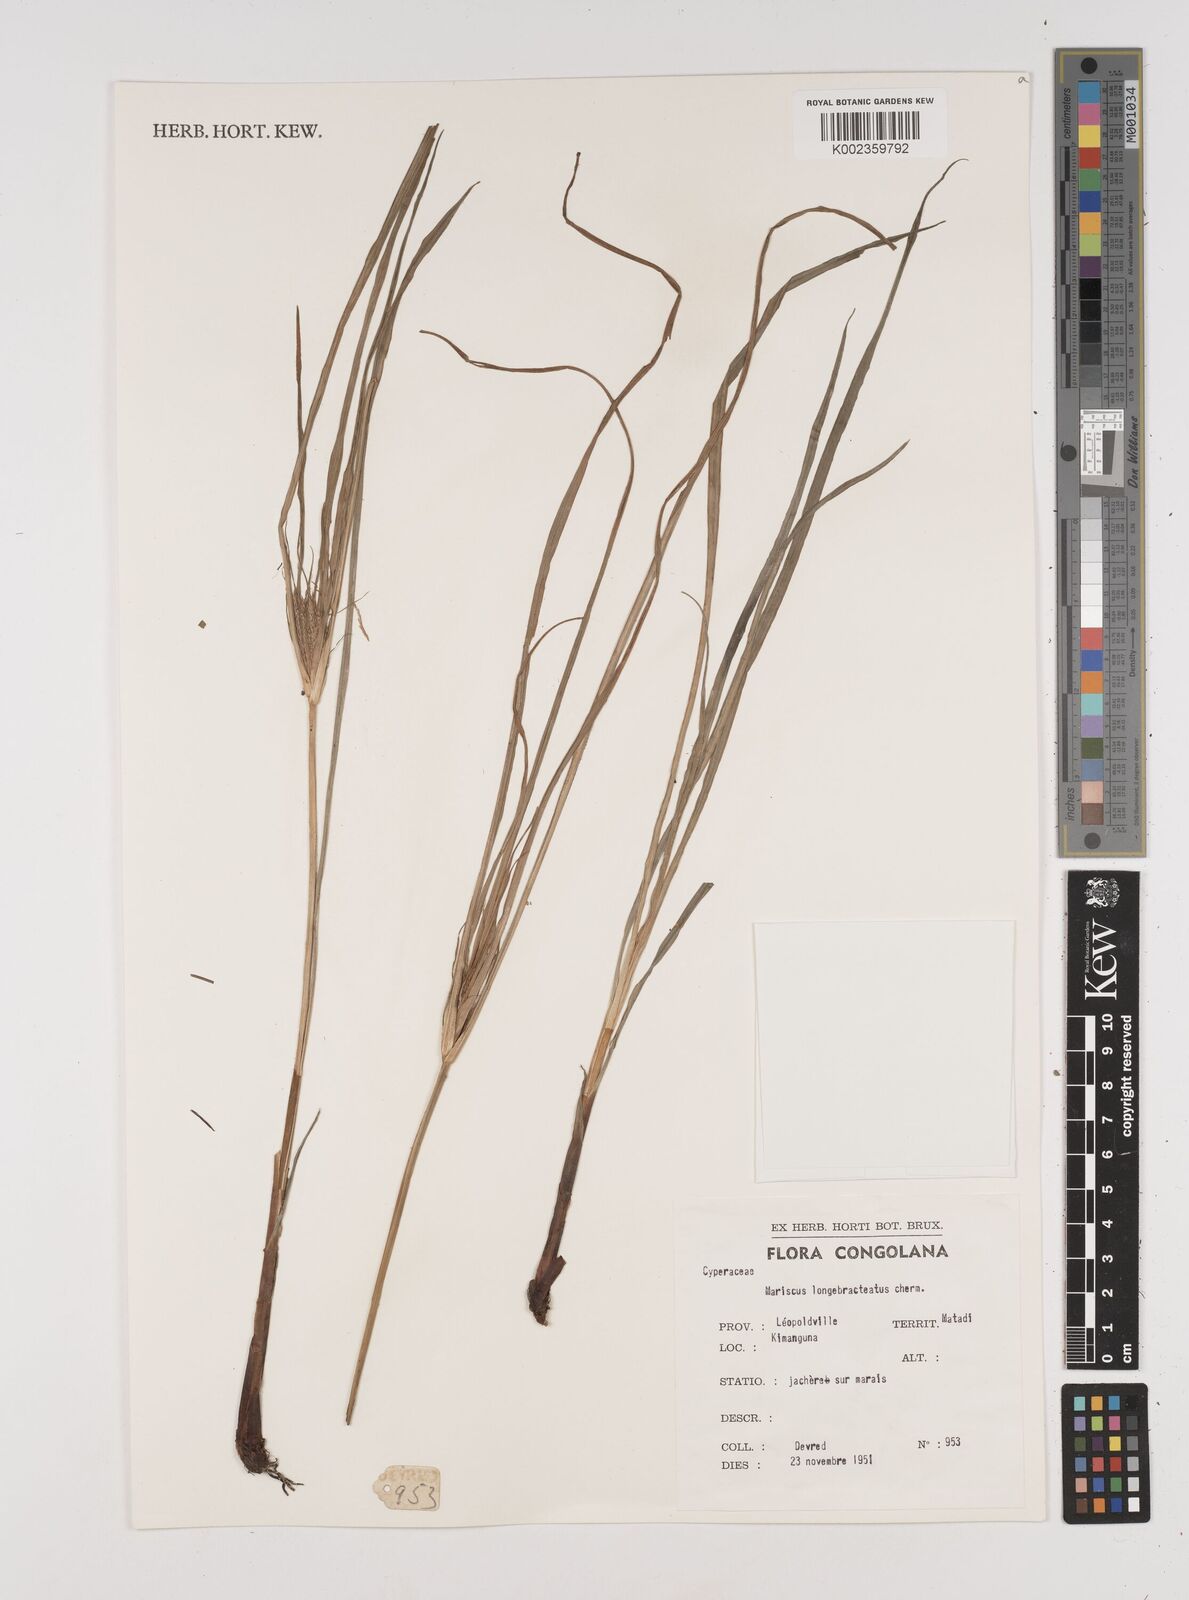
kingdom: Plantae
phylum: Tracheophyta
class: Liliopsida
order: Poales
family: Cyperaceae
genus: Cyperus
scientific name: Cyperus distans
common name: Slender cyperus
